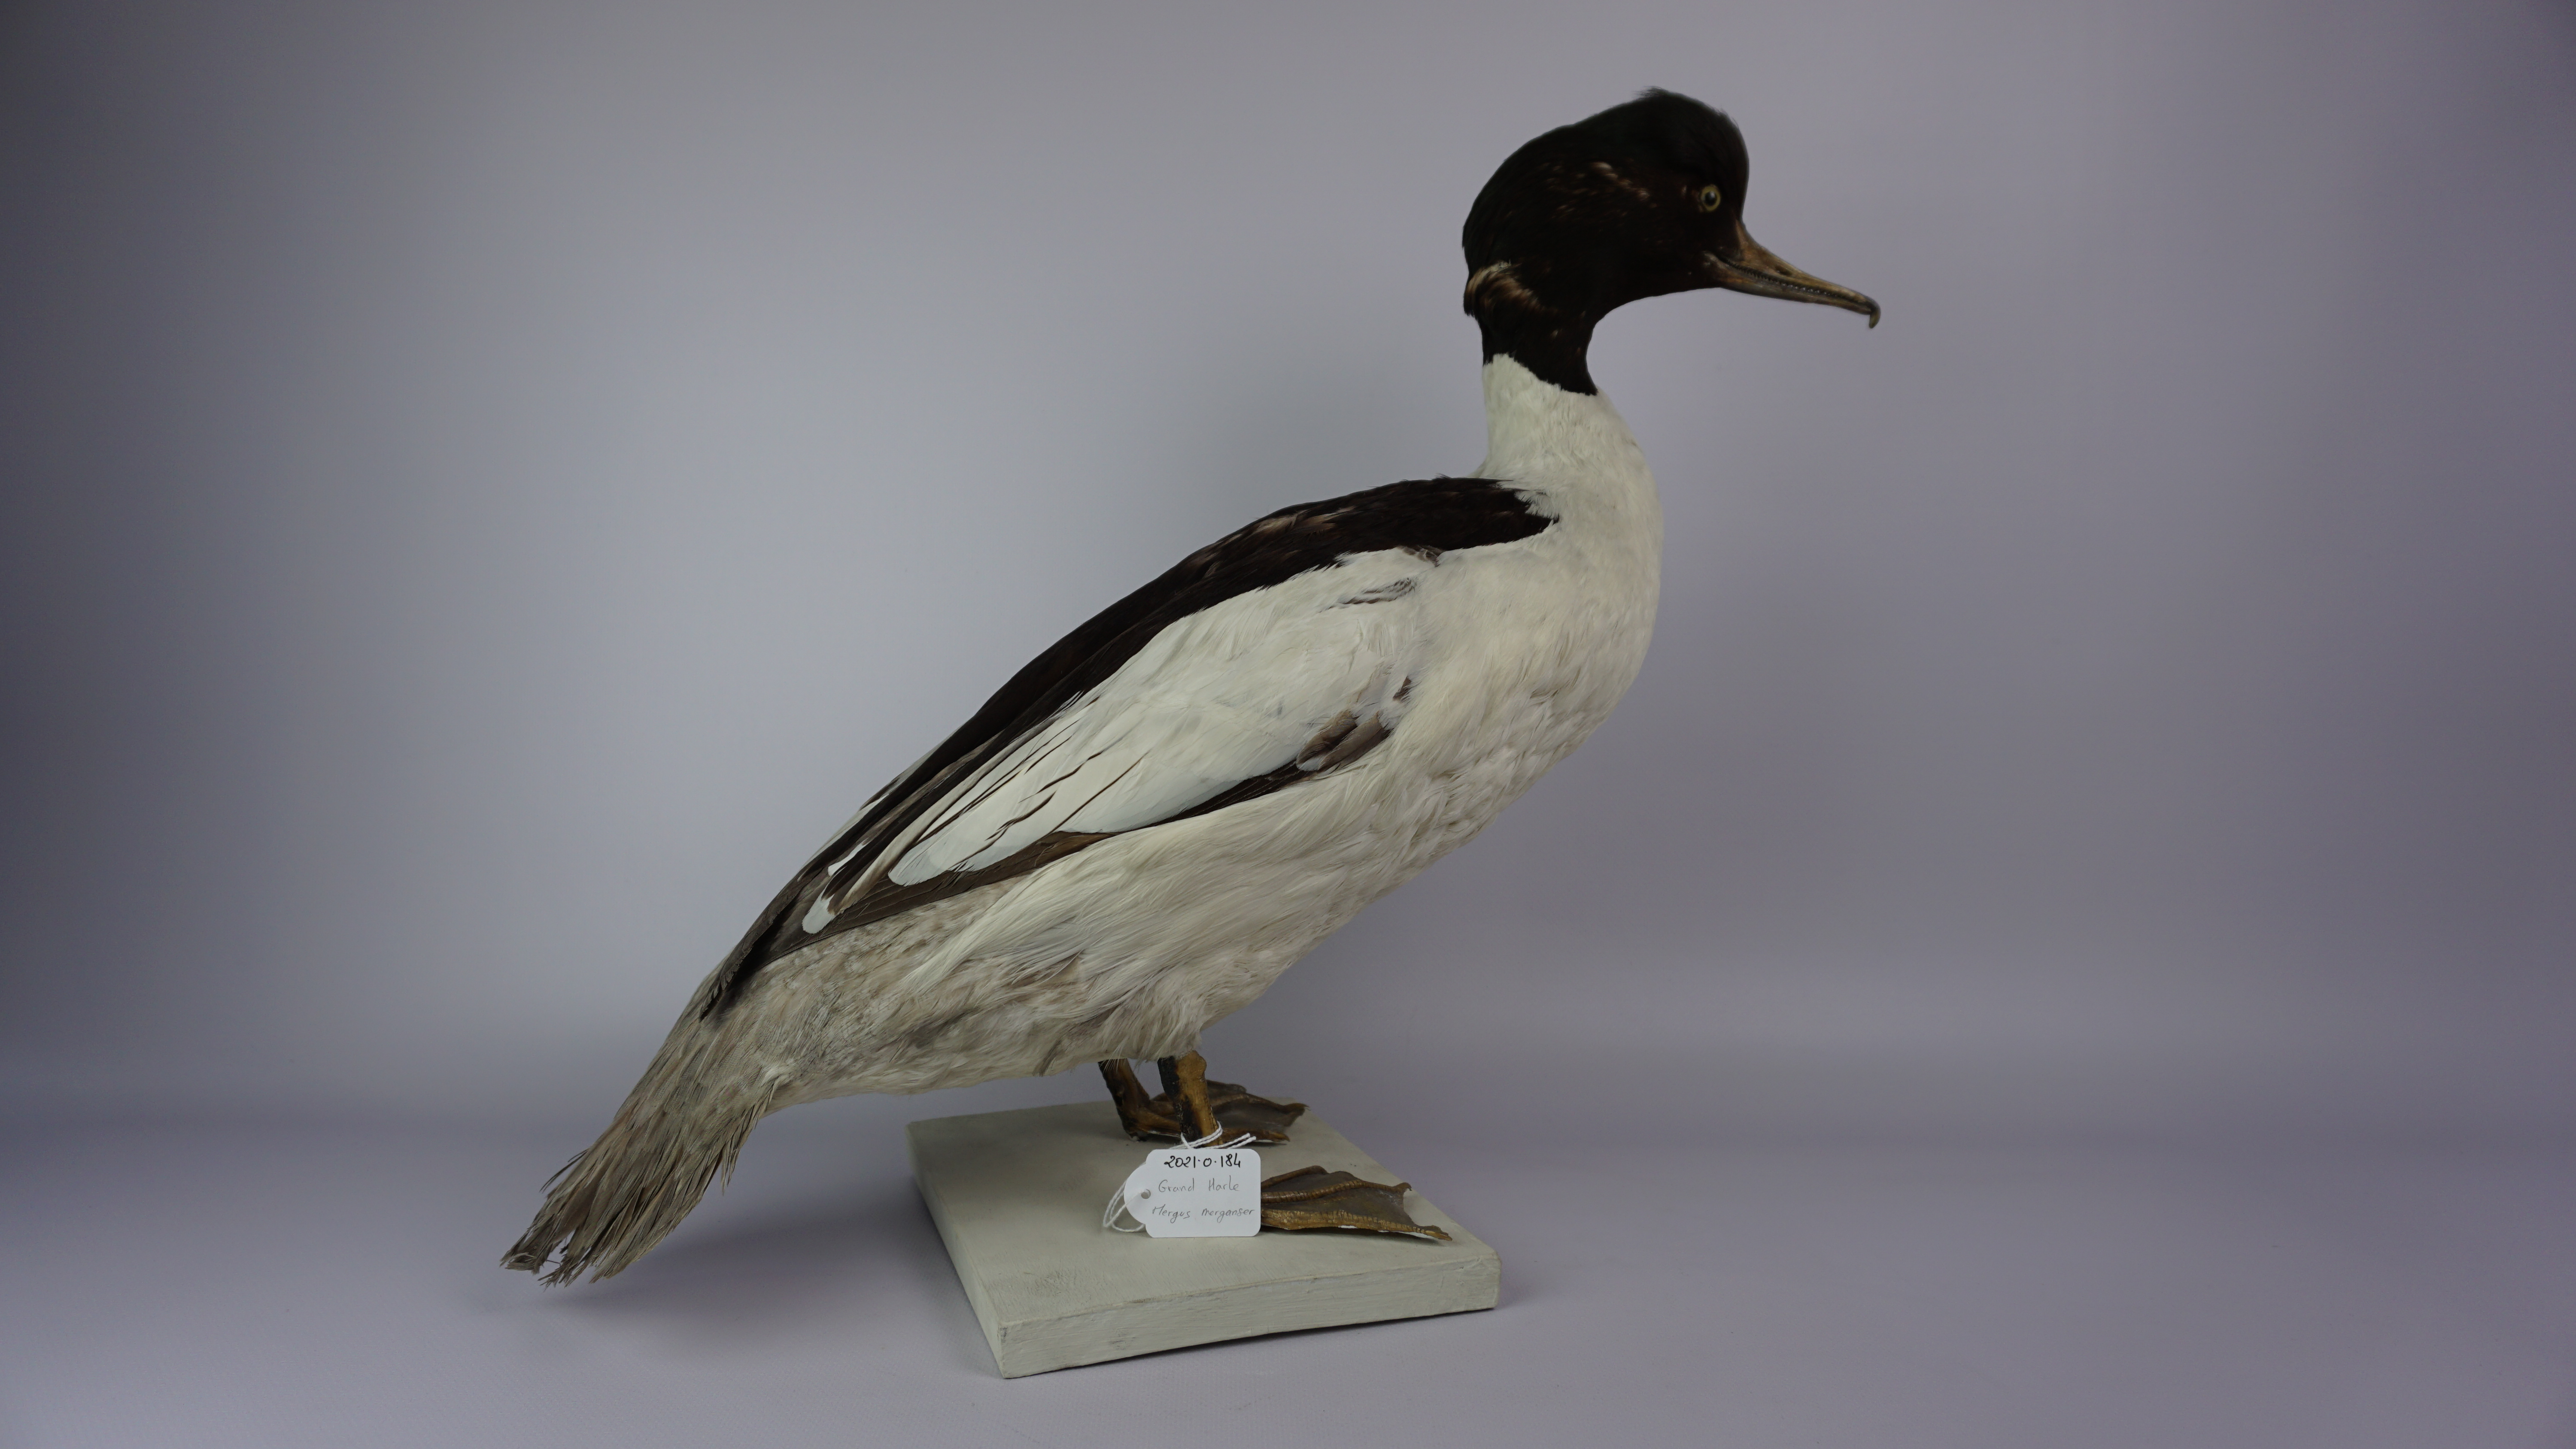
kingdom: Animalia
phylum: Chordata
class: Aves
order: Anseriformes
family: Anatidae
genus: Mergus
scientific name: Mergus merganser
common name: Common merganser
